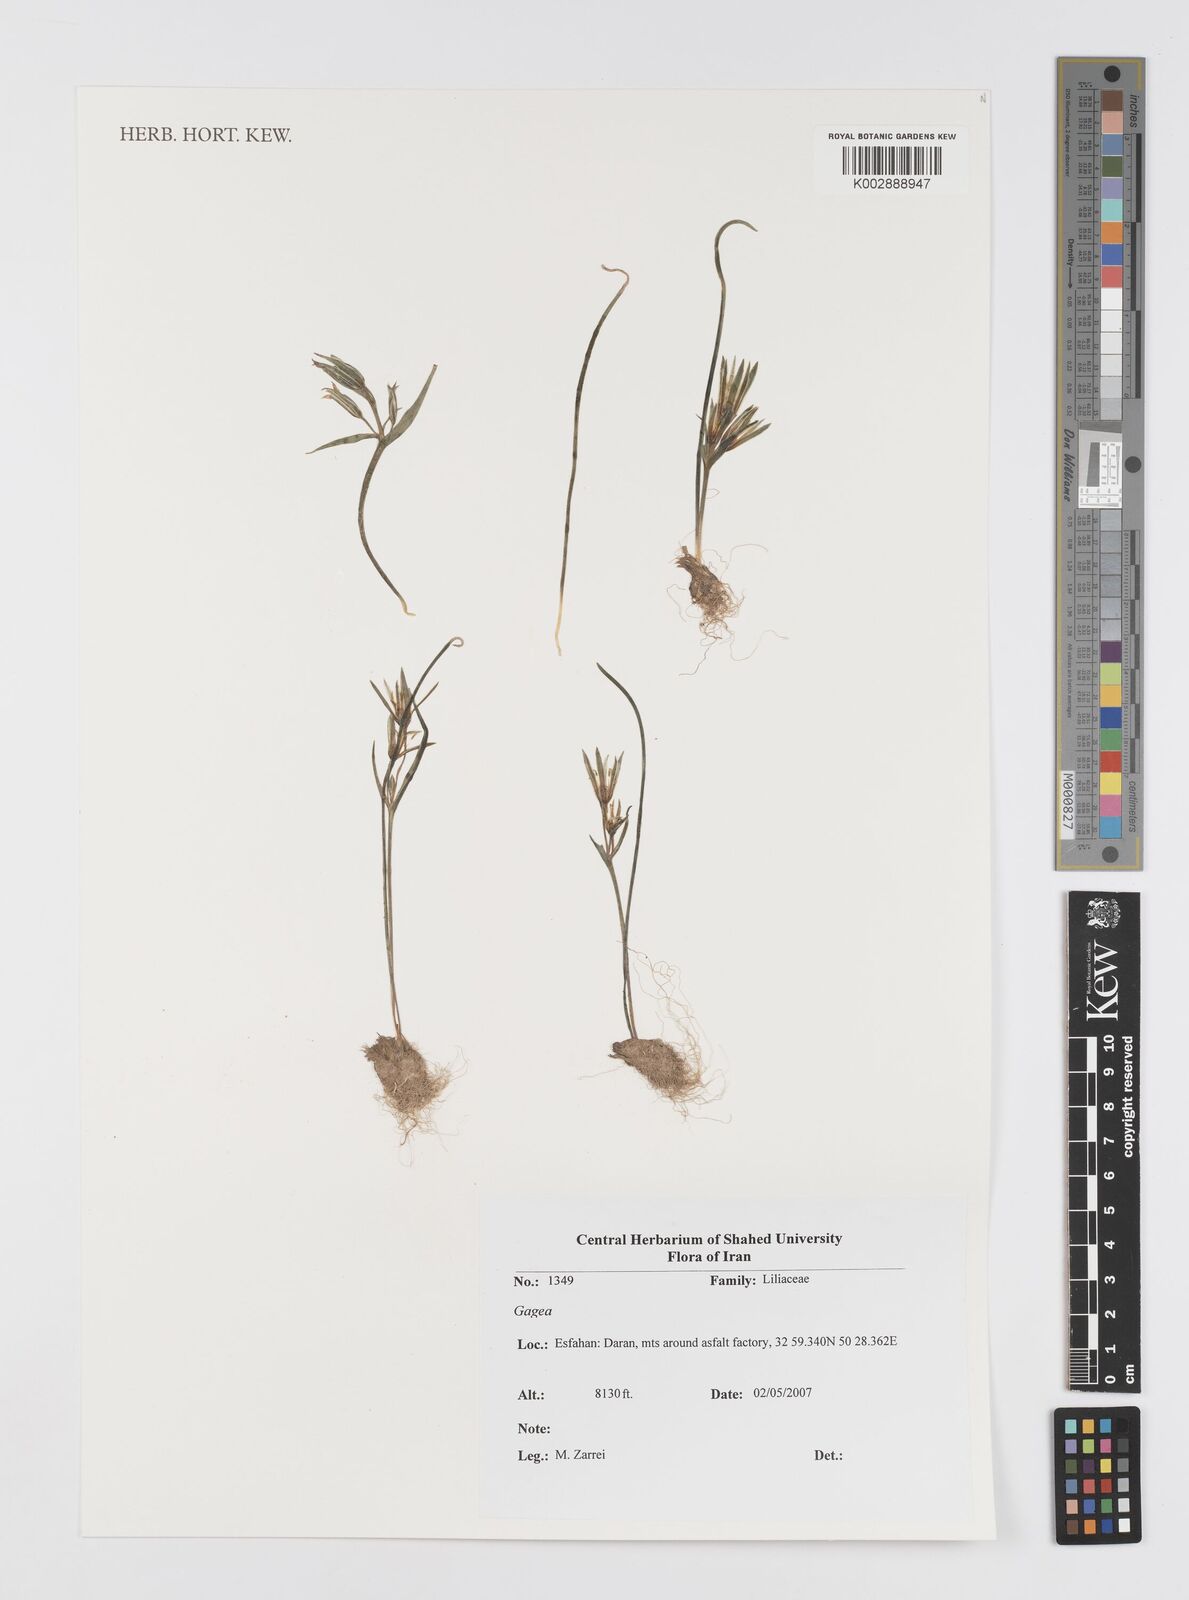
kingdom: Plantae
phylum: Tracheophyta
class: Liliopsida
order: Liliales
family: Liliaceae
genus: Gagea
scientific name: Gagea
